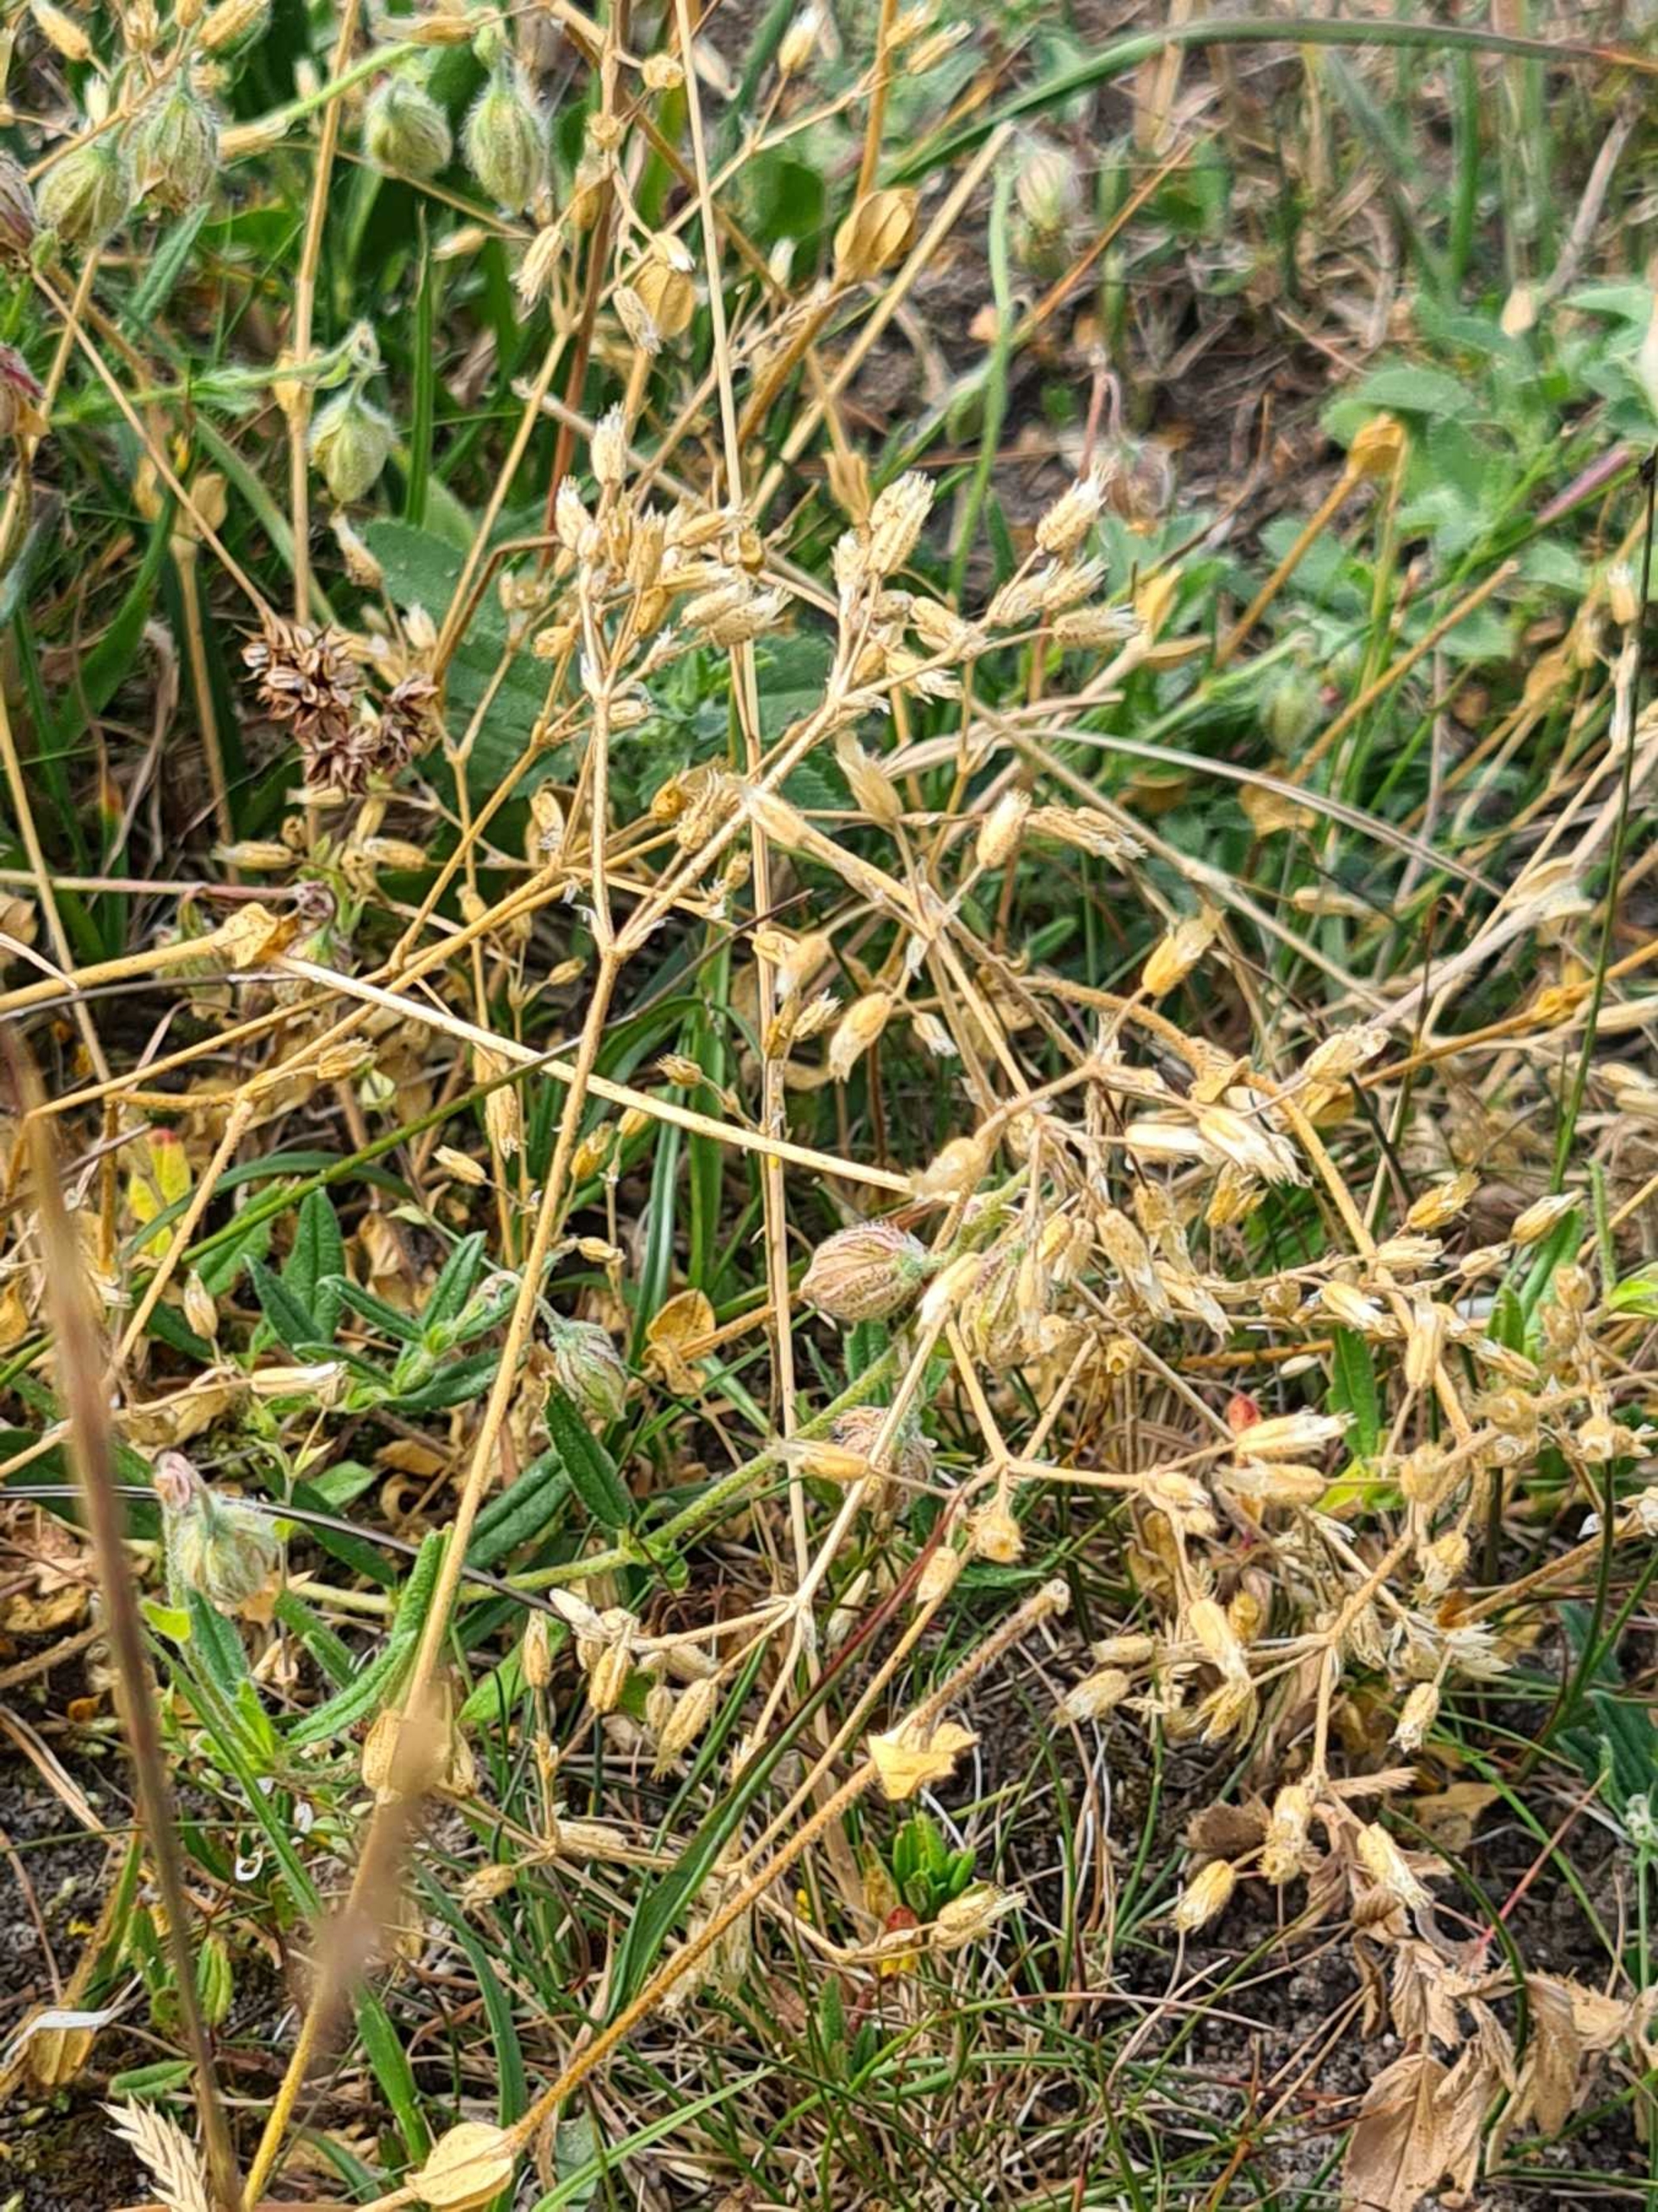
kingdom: Plantae
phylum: Tracheophyta
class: Magnoliopsida
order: Caryophyllales
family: Caryophyllaceae
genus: Cerastium
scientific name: Cerastium glutinosum
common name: Klæbrig hønsetarm
